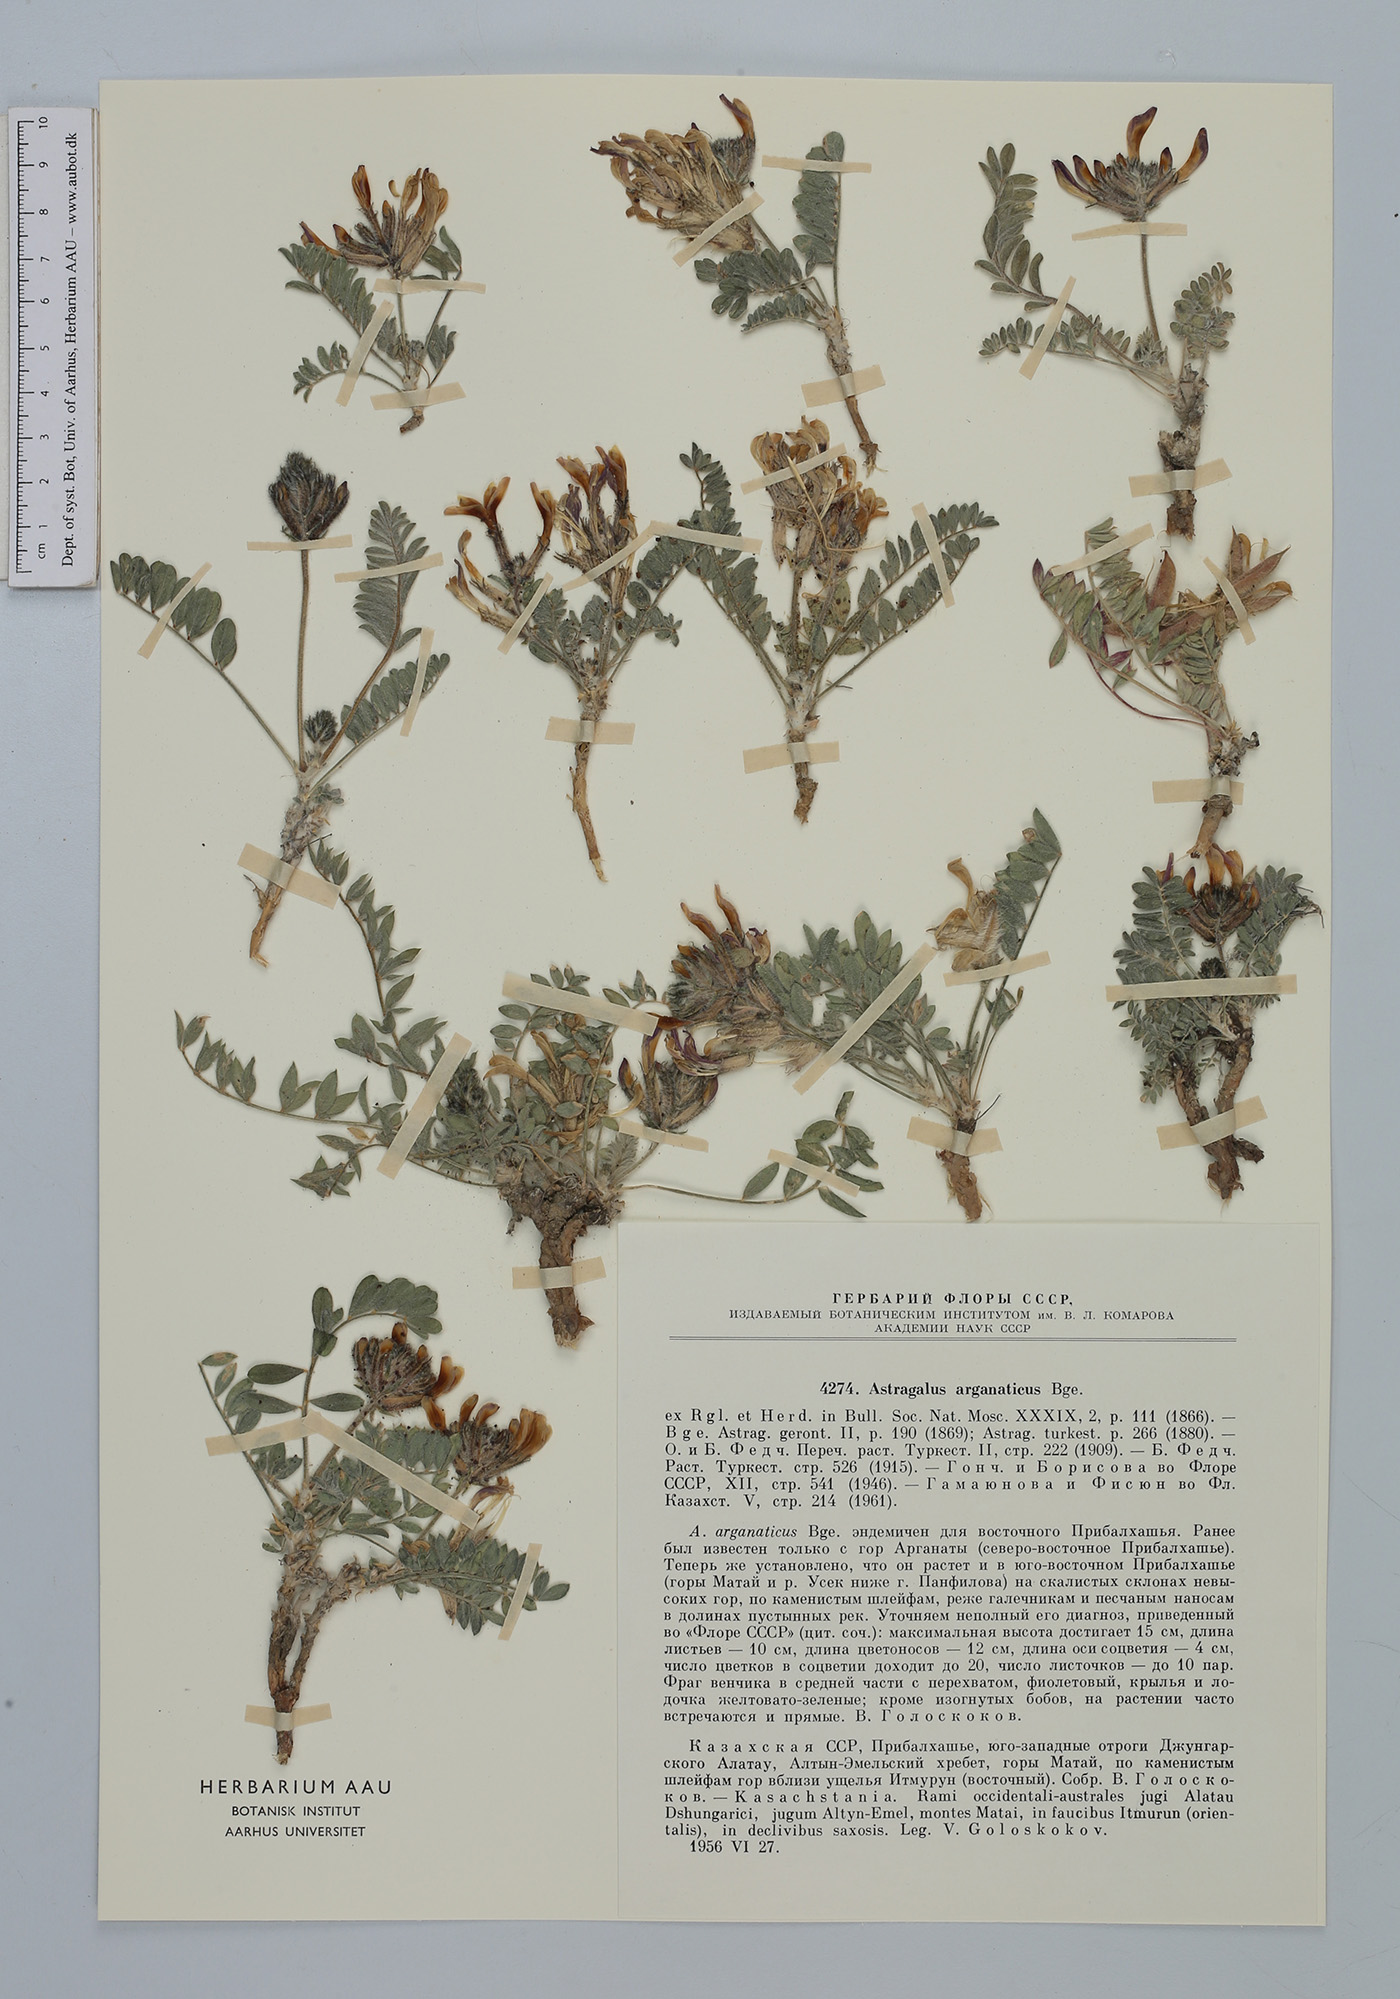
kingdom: Plantae
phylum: Tracheophyta
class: Magnoliopsida
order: Fabales
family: Fabaceae
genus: Astragalus
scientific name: Astragalus arganaticus
